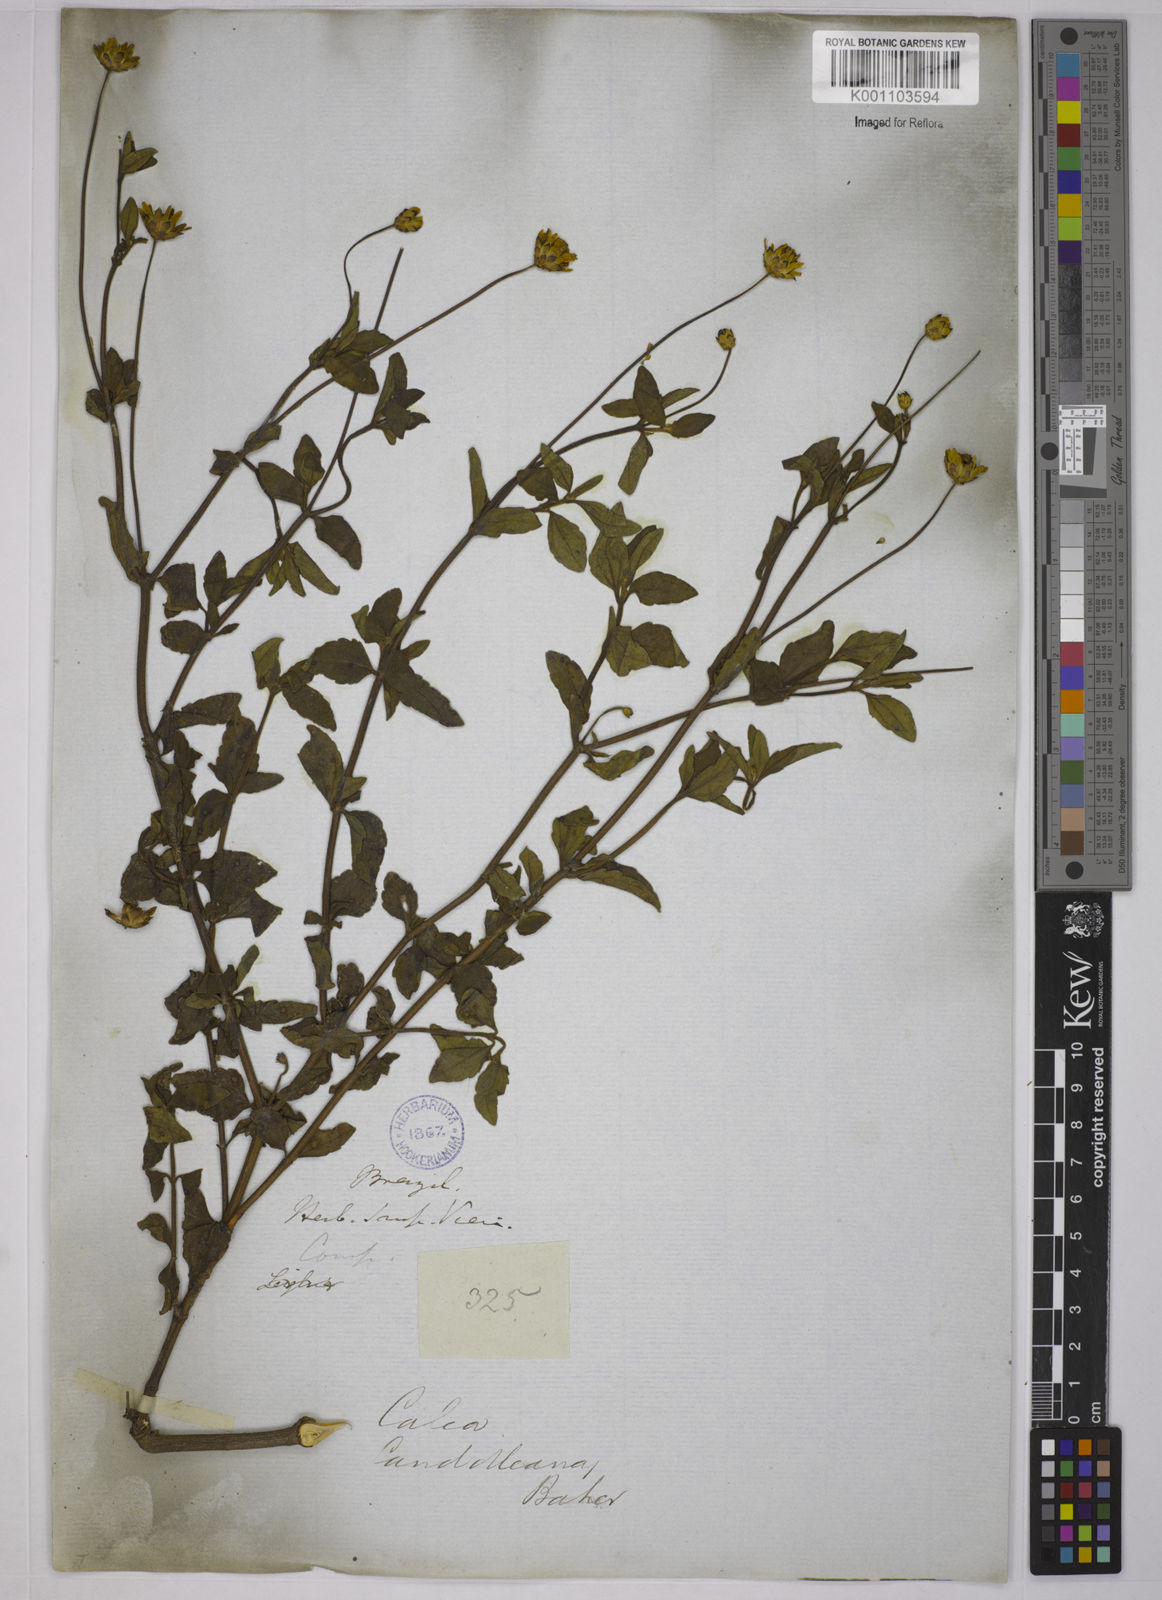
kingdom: Plantae
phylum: Tracheophyta
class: Magnoliopsida
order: Asterales
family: Asteraceae
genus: Calea
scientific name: Calea candolleana
